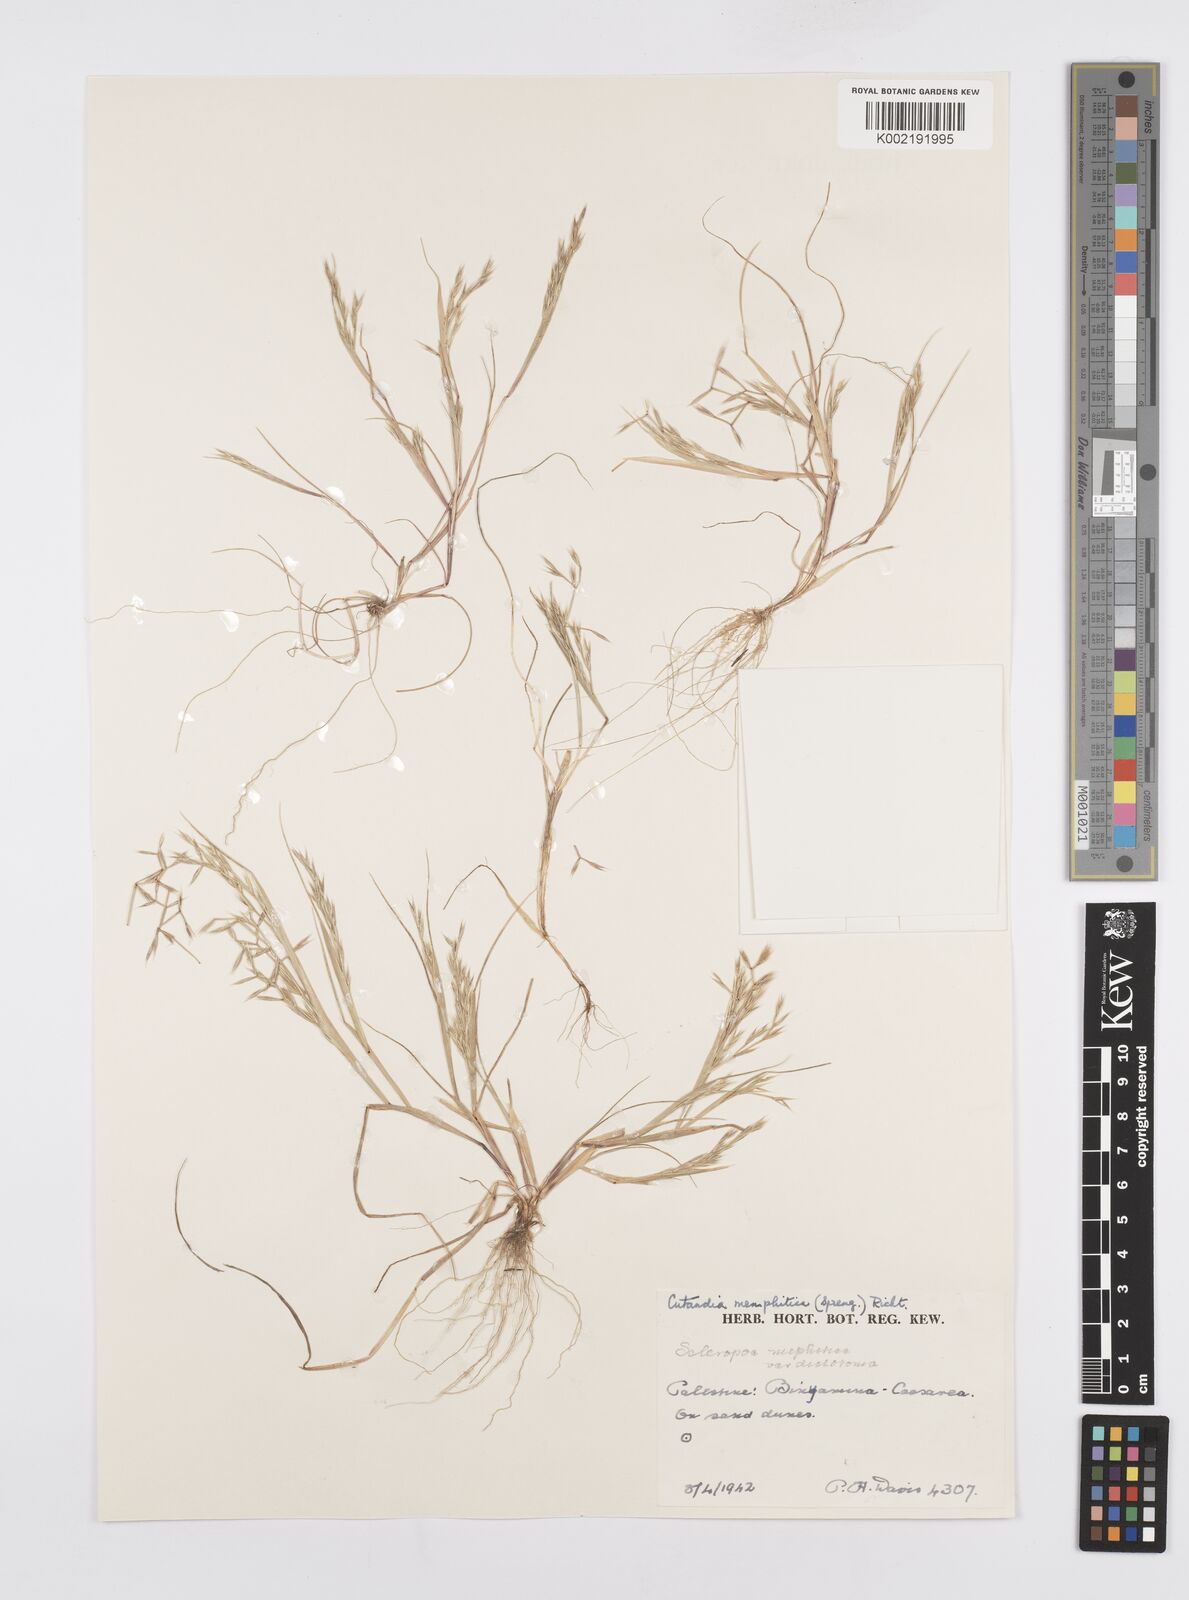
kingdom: Plantae
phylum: Tracheophyta
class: Liliopsida
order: Poales
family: Poaceae
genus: Cutandia
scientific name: Cutandia memphitica
